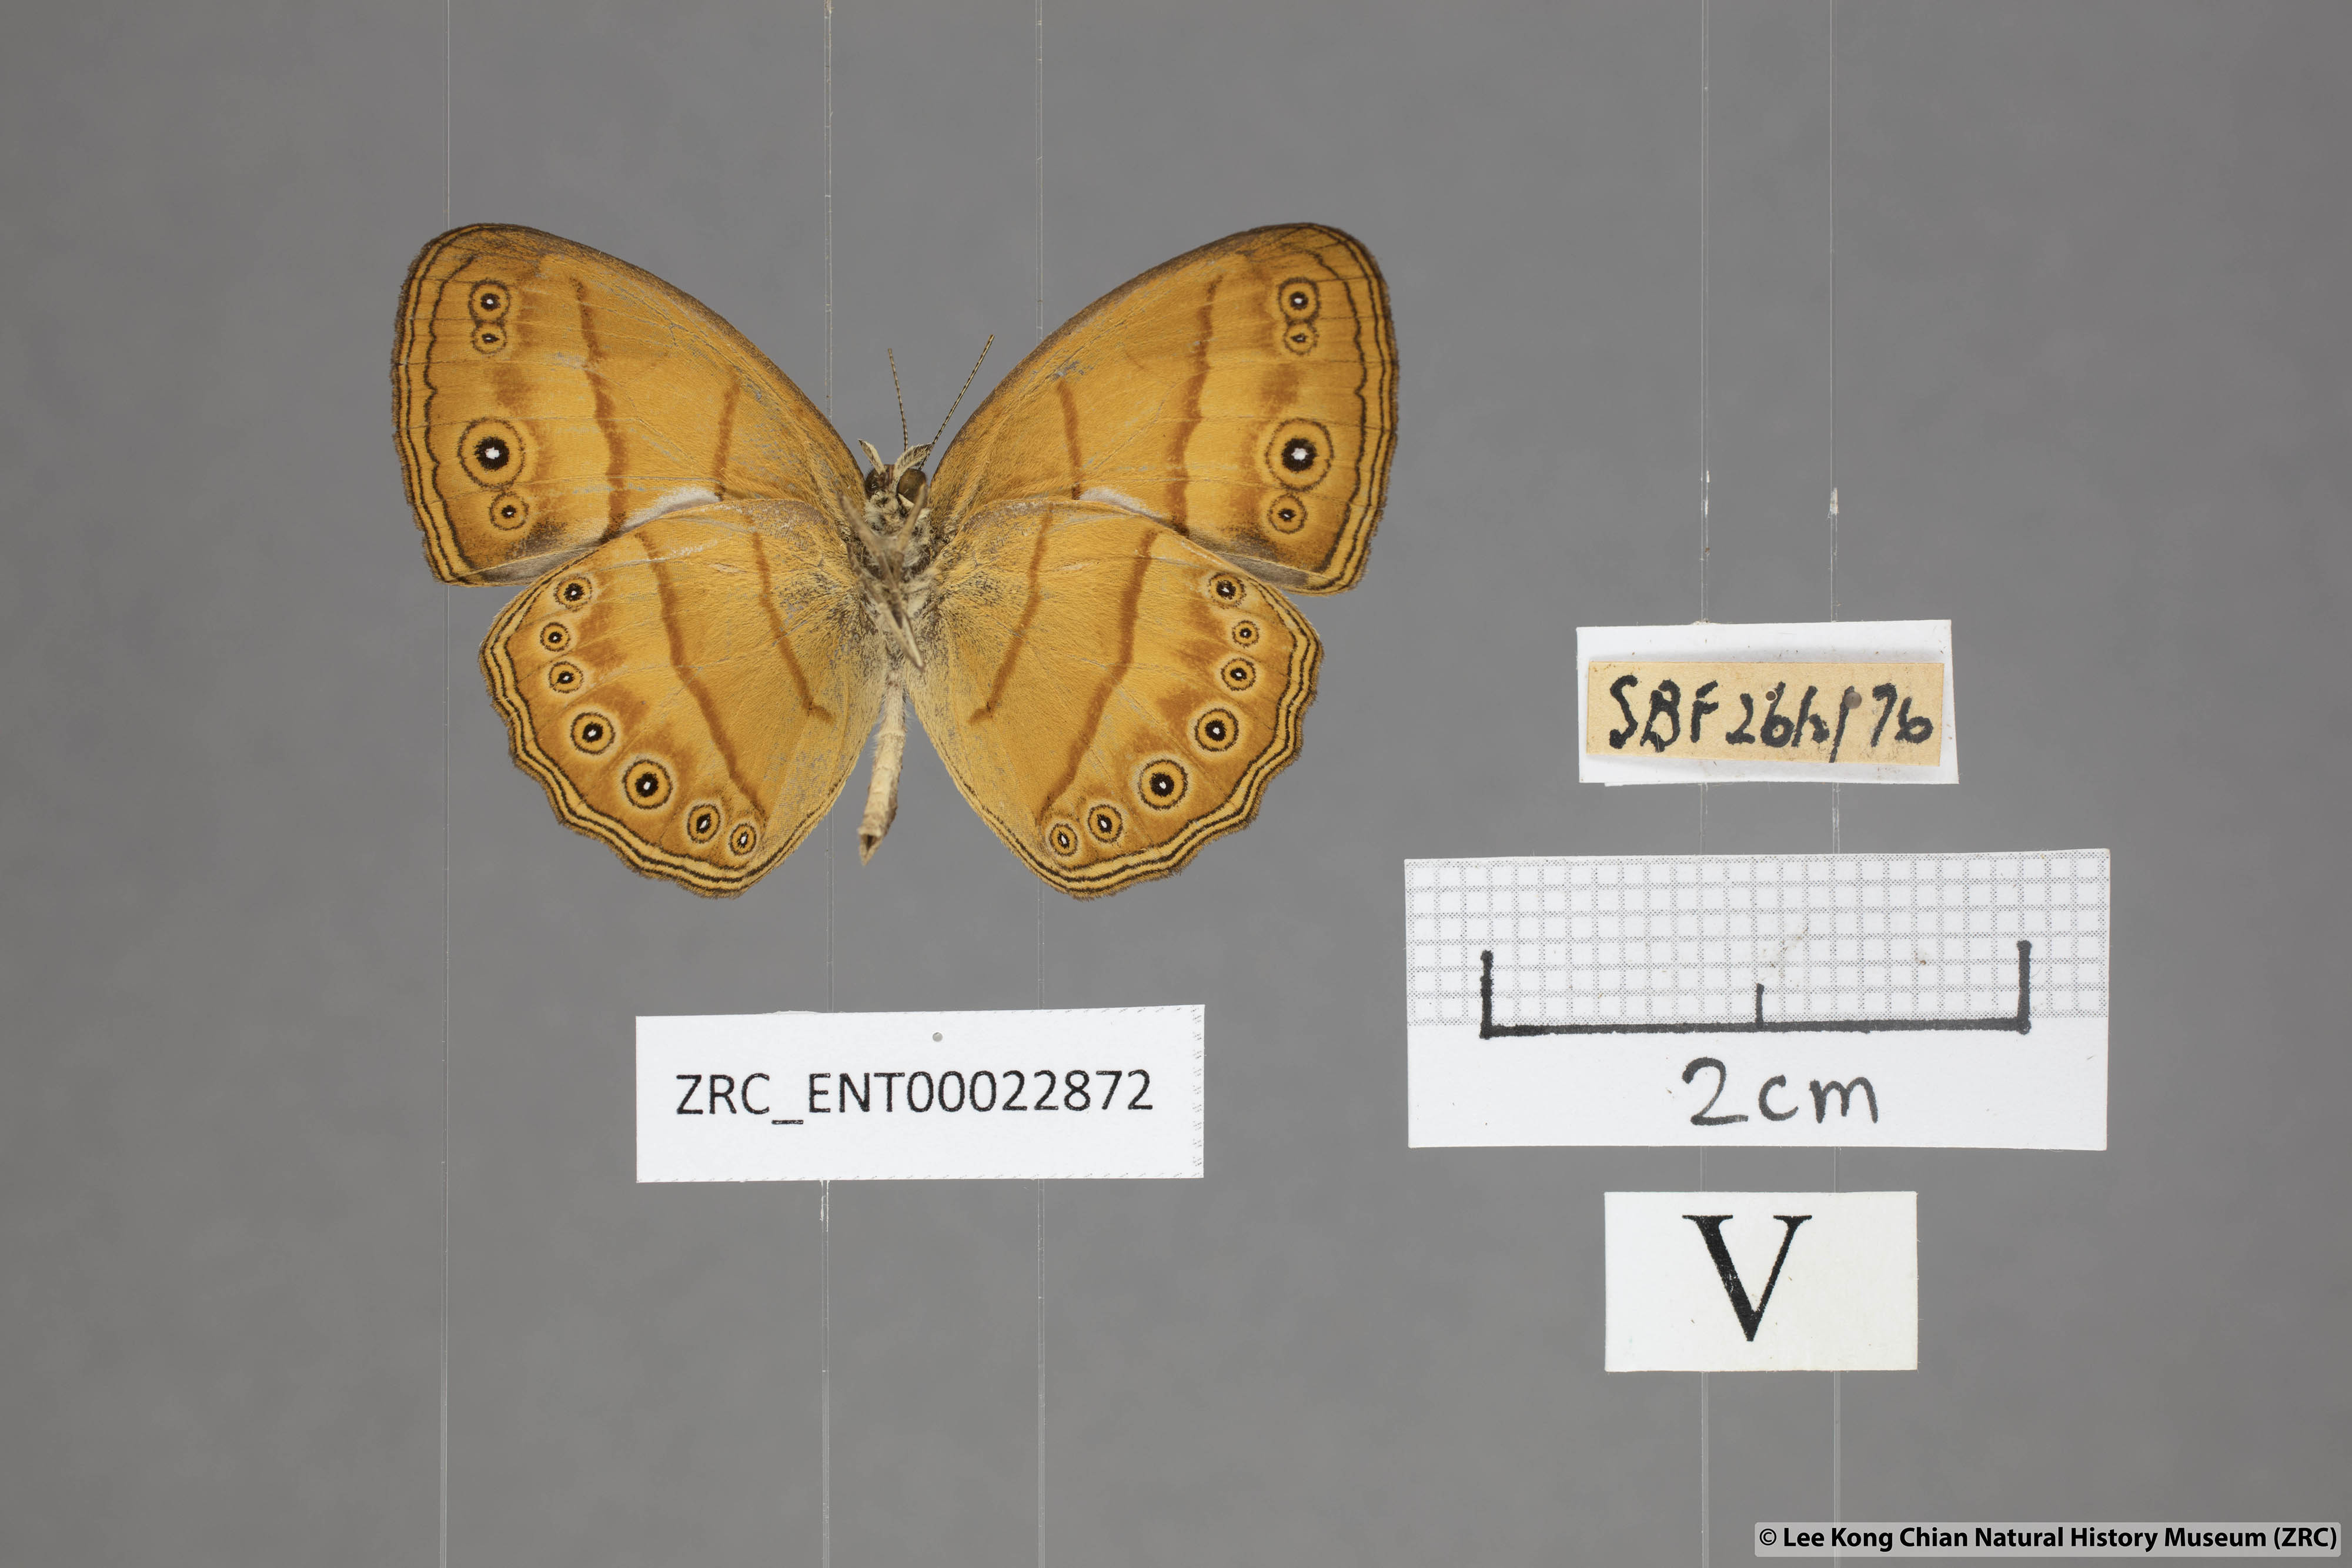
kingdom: Animalia
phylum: Arthropoda
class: Insecta
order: Lepidoptera
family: Nymphalidae
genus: Mycalesis
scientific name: Mycalesis anapita
